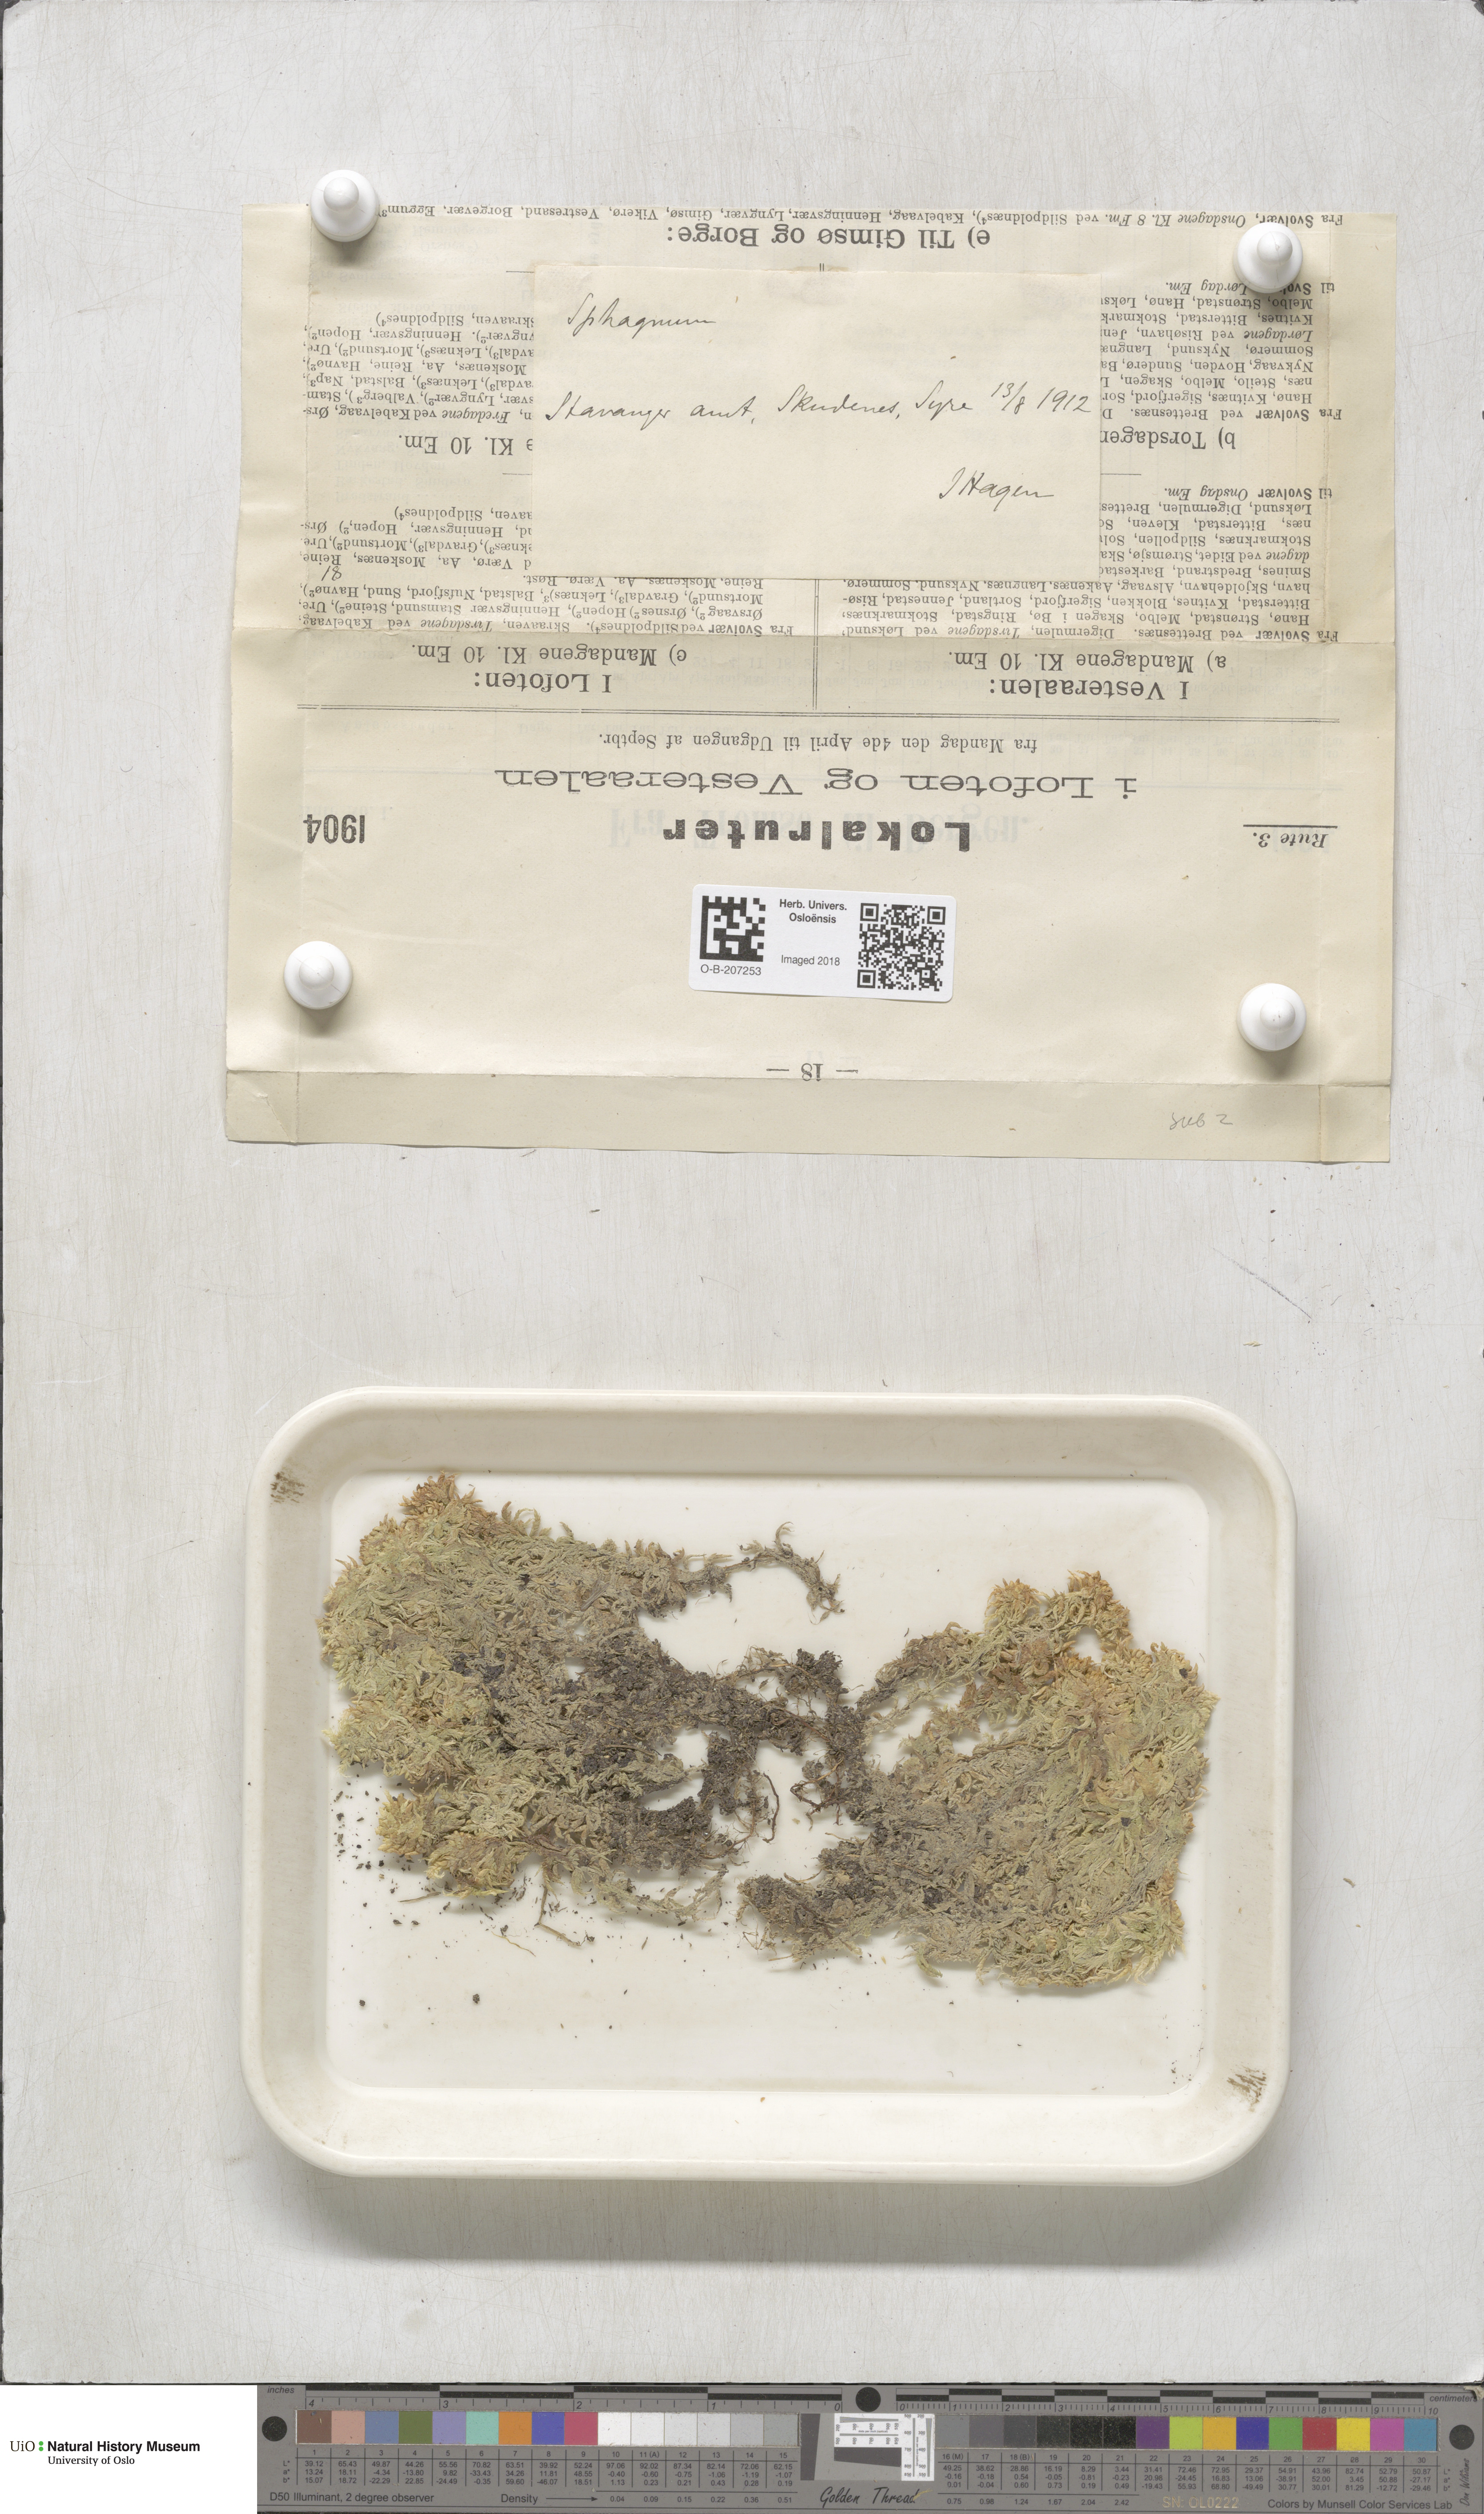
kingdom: Plantae
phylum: Bryophyta
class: Sphagnopsida
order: Sphagnales
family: Sphagnaceae
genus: Sphagnum
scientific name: Sphagnum subsecundum
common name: Orange peat moss
